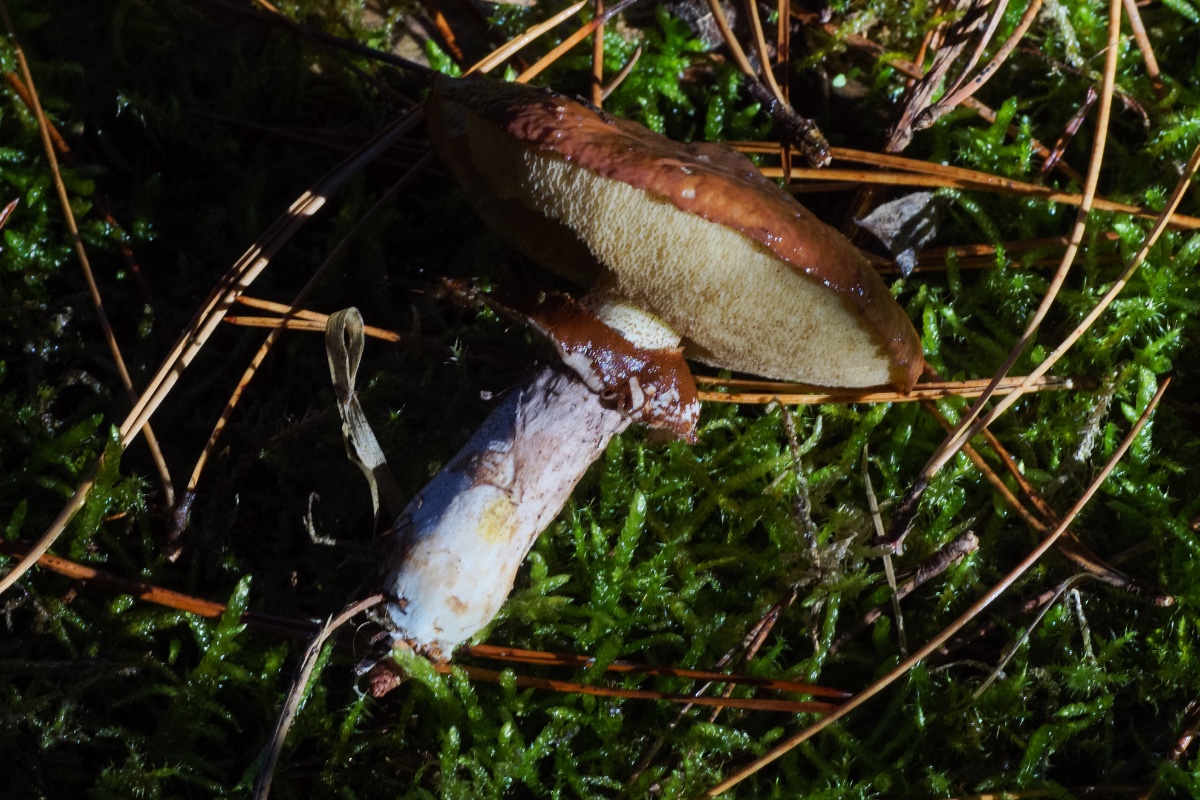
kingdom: Fungi
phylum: Basidiomycota
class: Agaricomycetes
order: Boletales
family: Suillaceae
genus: Suillus
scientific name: Suillus luteus
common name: brungul slimrørhat
